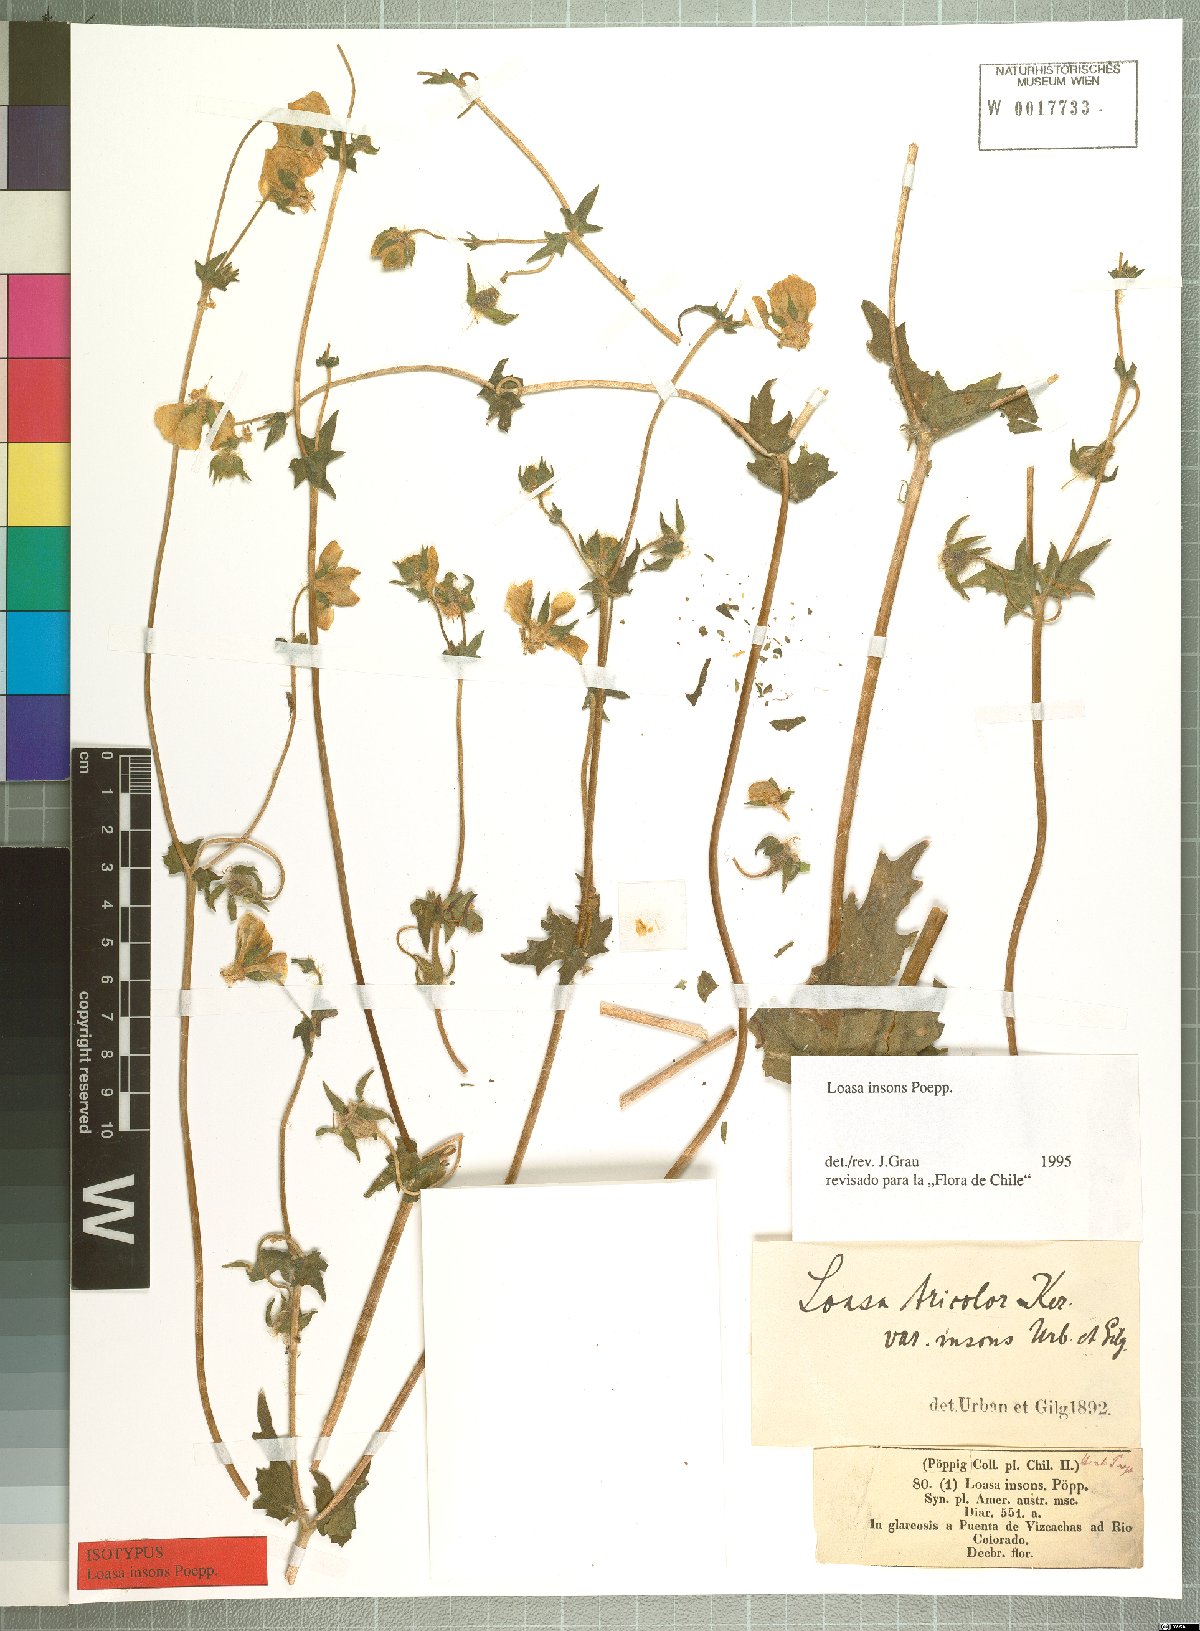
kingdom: Plantae
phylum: Tracheophyta
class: Magnoliopsida
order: Cornales
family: Loasaceae
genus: Loasa
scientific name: Loasa insons
